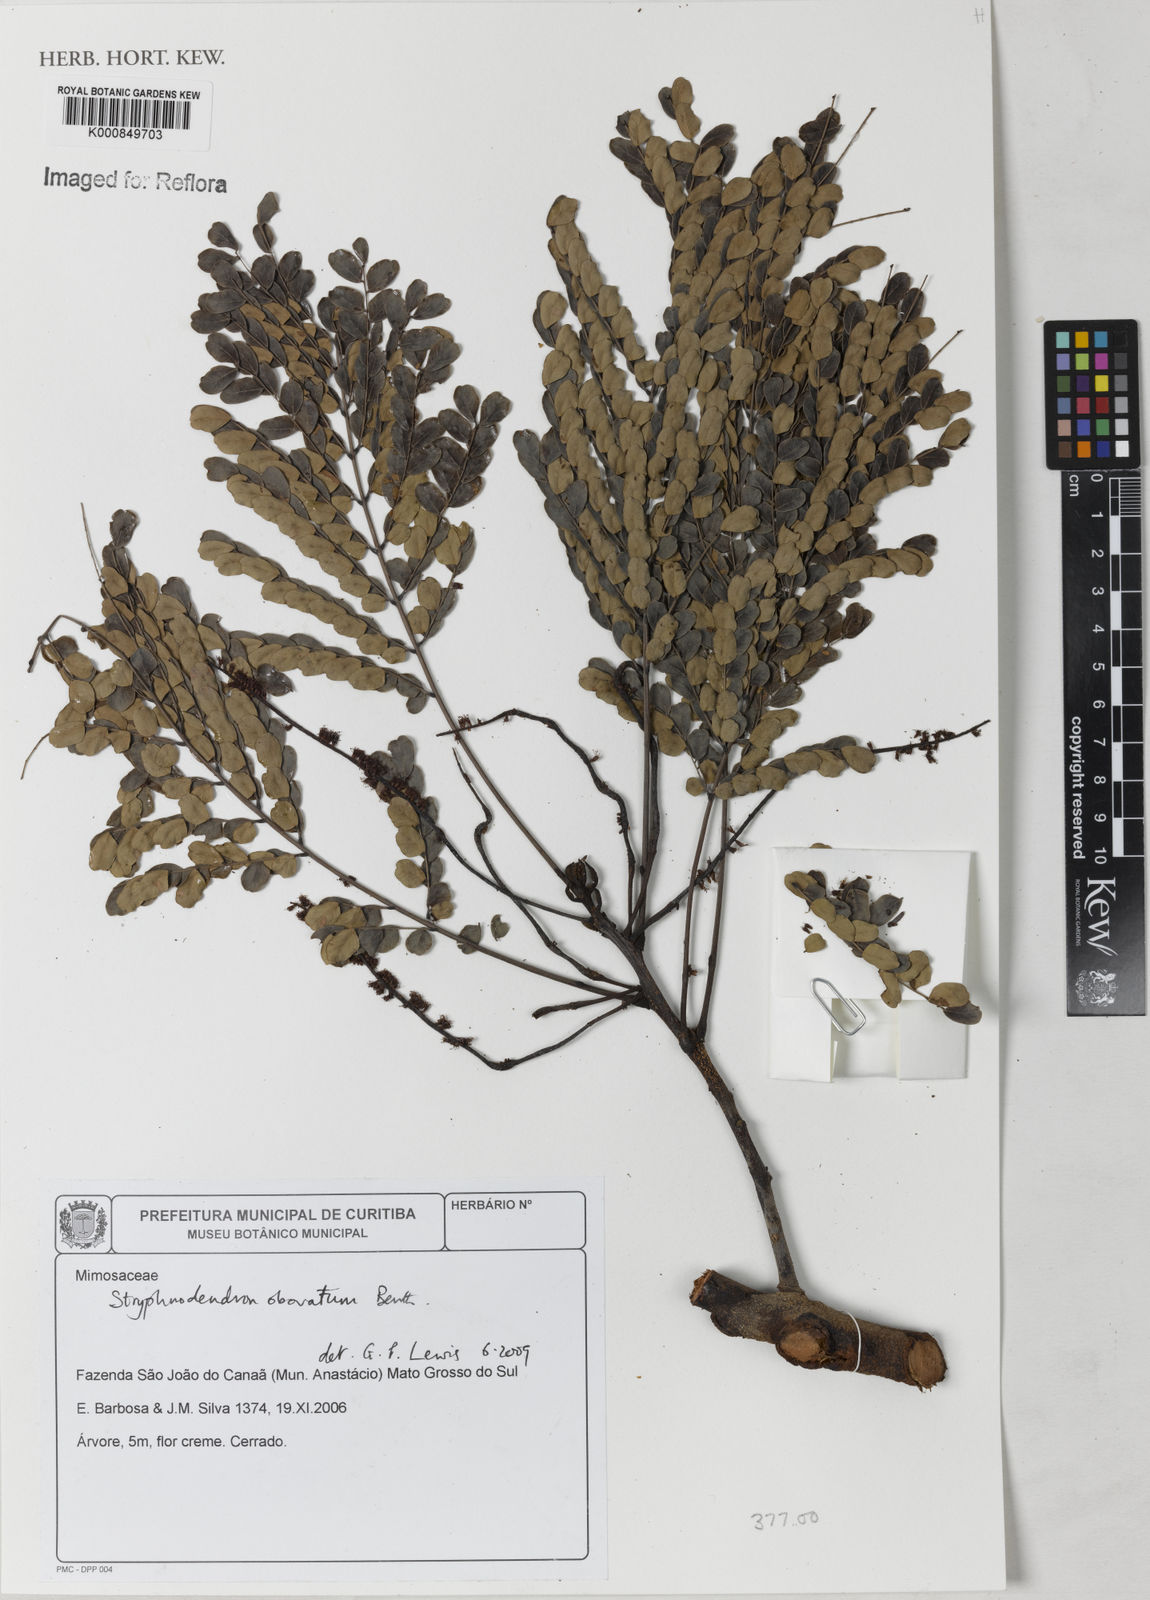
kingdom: Plantae
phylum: Tracheophyta
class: Magnoliopsida
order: Fabales
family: Fabaceae
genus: Stryphnodendron
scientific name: Stryphnodendron rotundifolium
